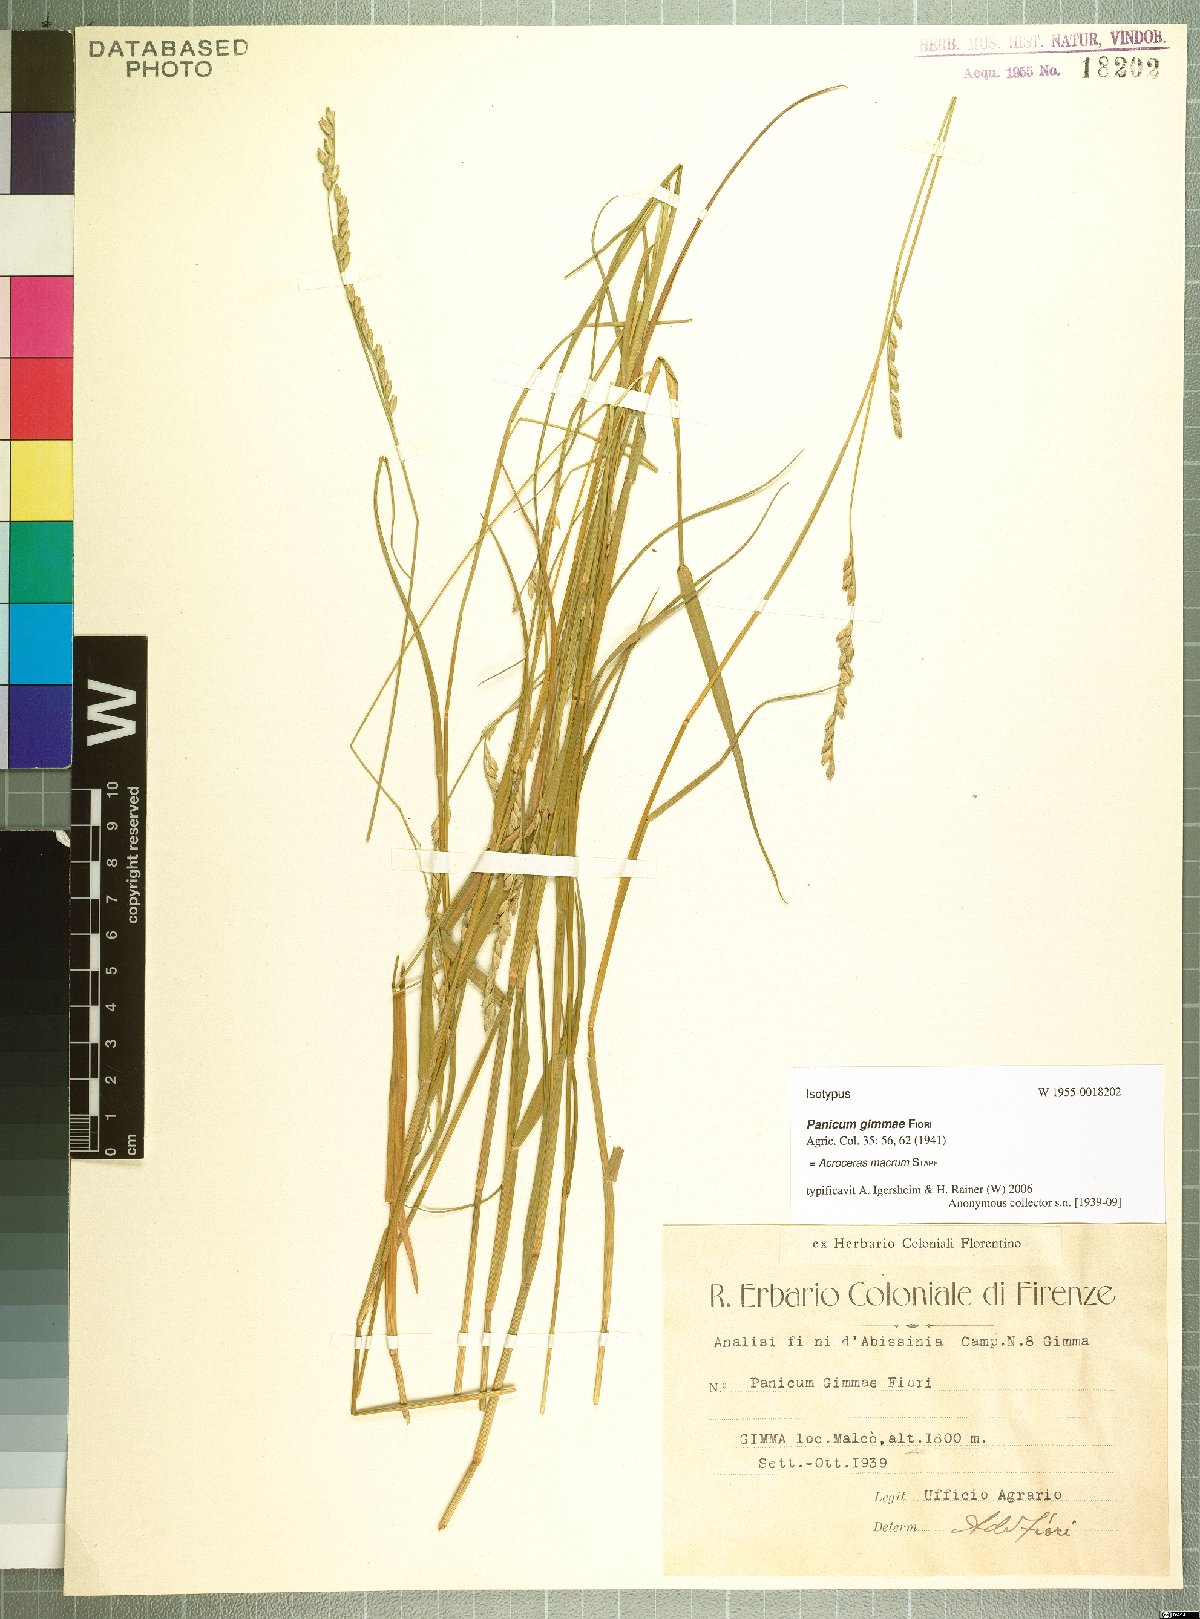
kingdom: Plantae
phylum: Tracheophyta
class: Liliopsida
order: Poales
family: Poaceae
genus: Acroceras
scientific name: Acroceras macrum
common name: Nyl grass
